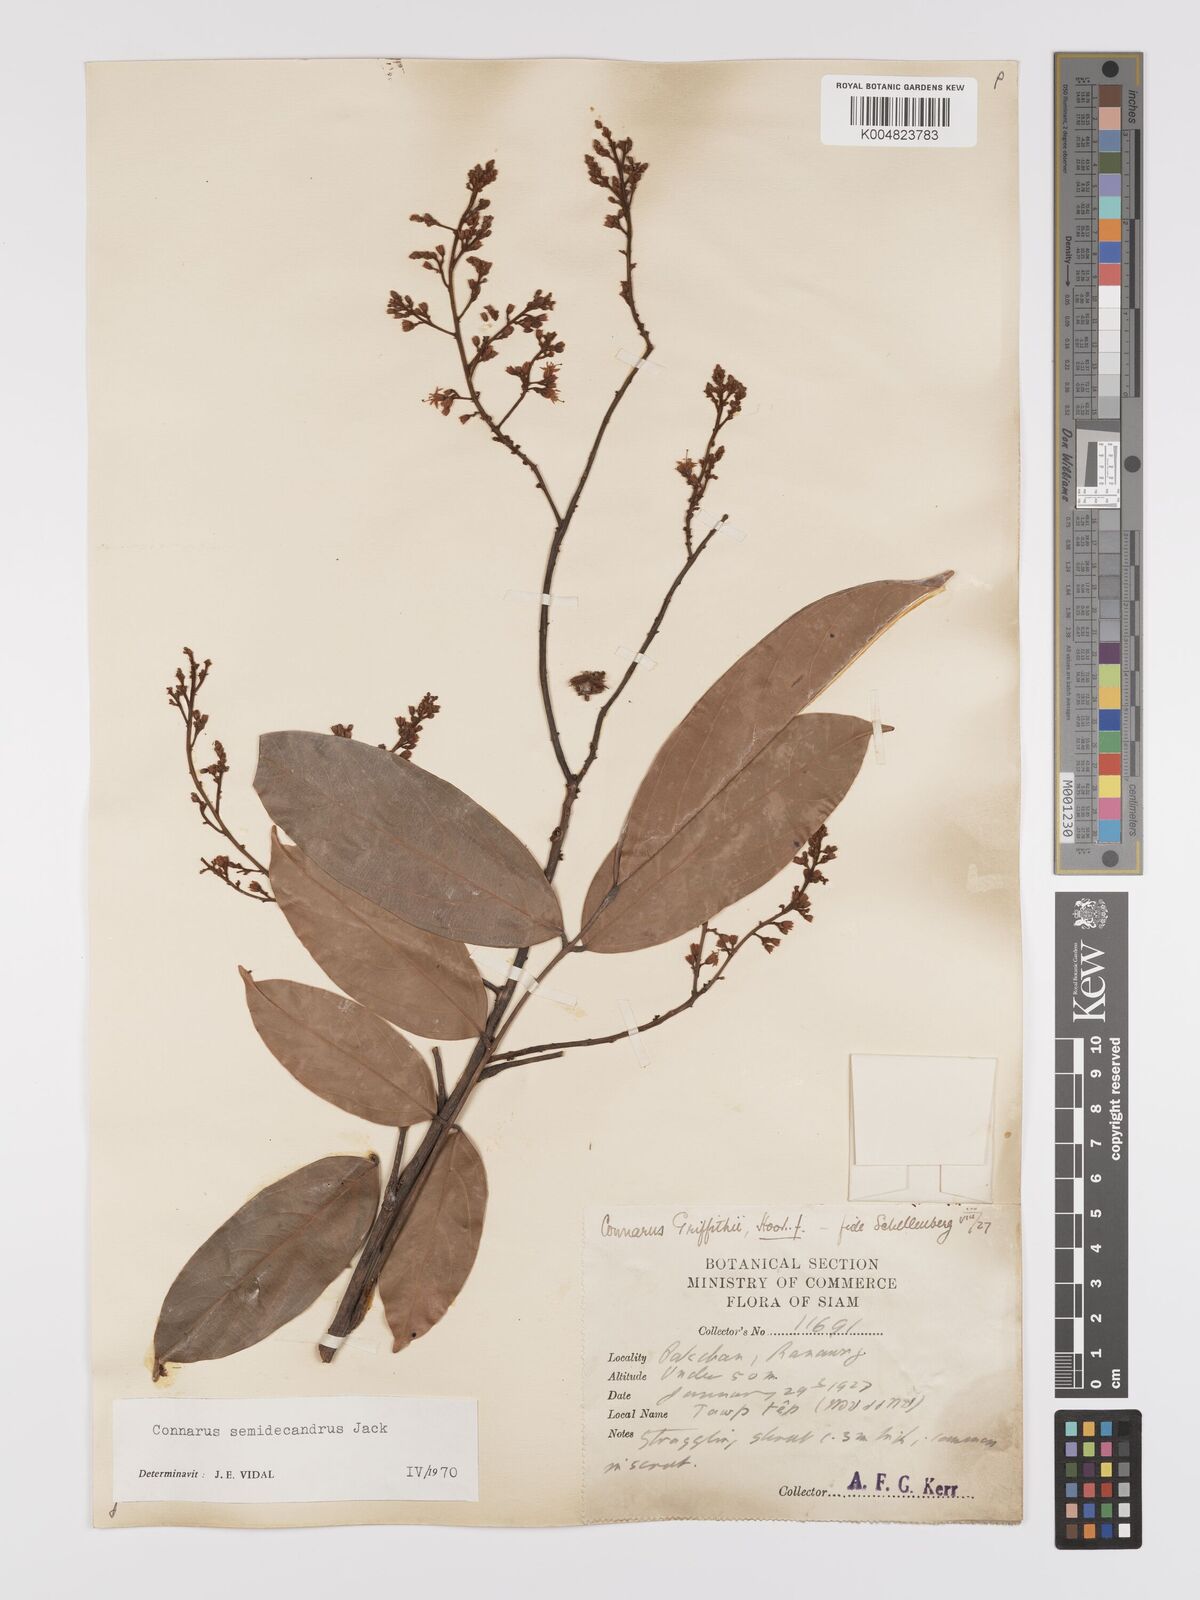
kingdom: Plantae
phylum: Tracheophyta
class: Magnoliopsida
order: Oxalidales
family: Connaraceae
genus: Connarus
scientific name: Connarus semidecandrus
